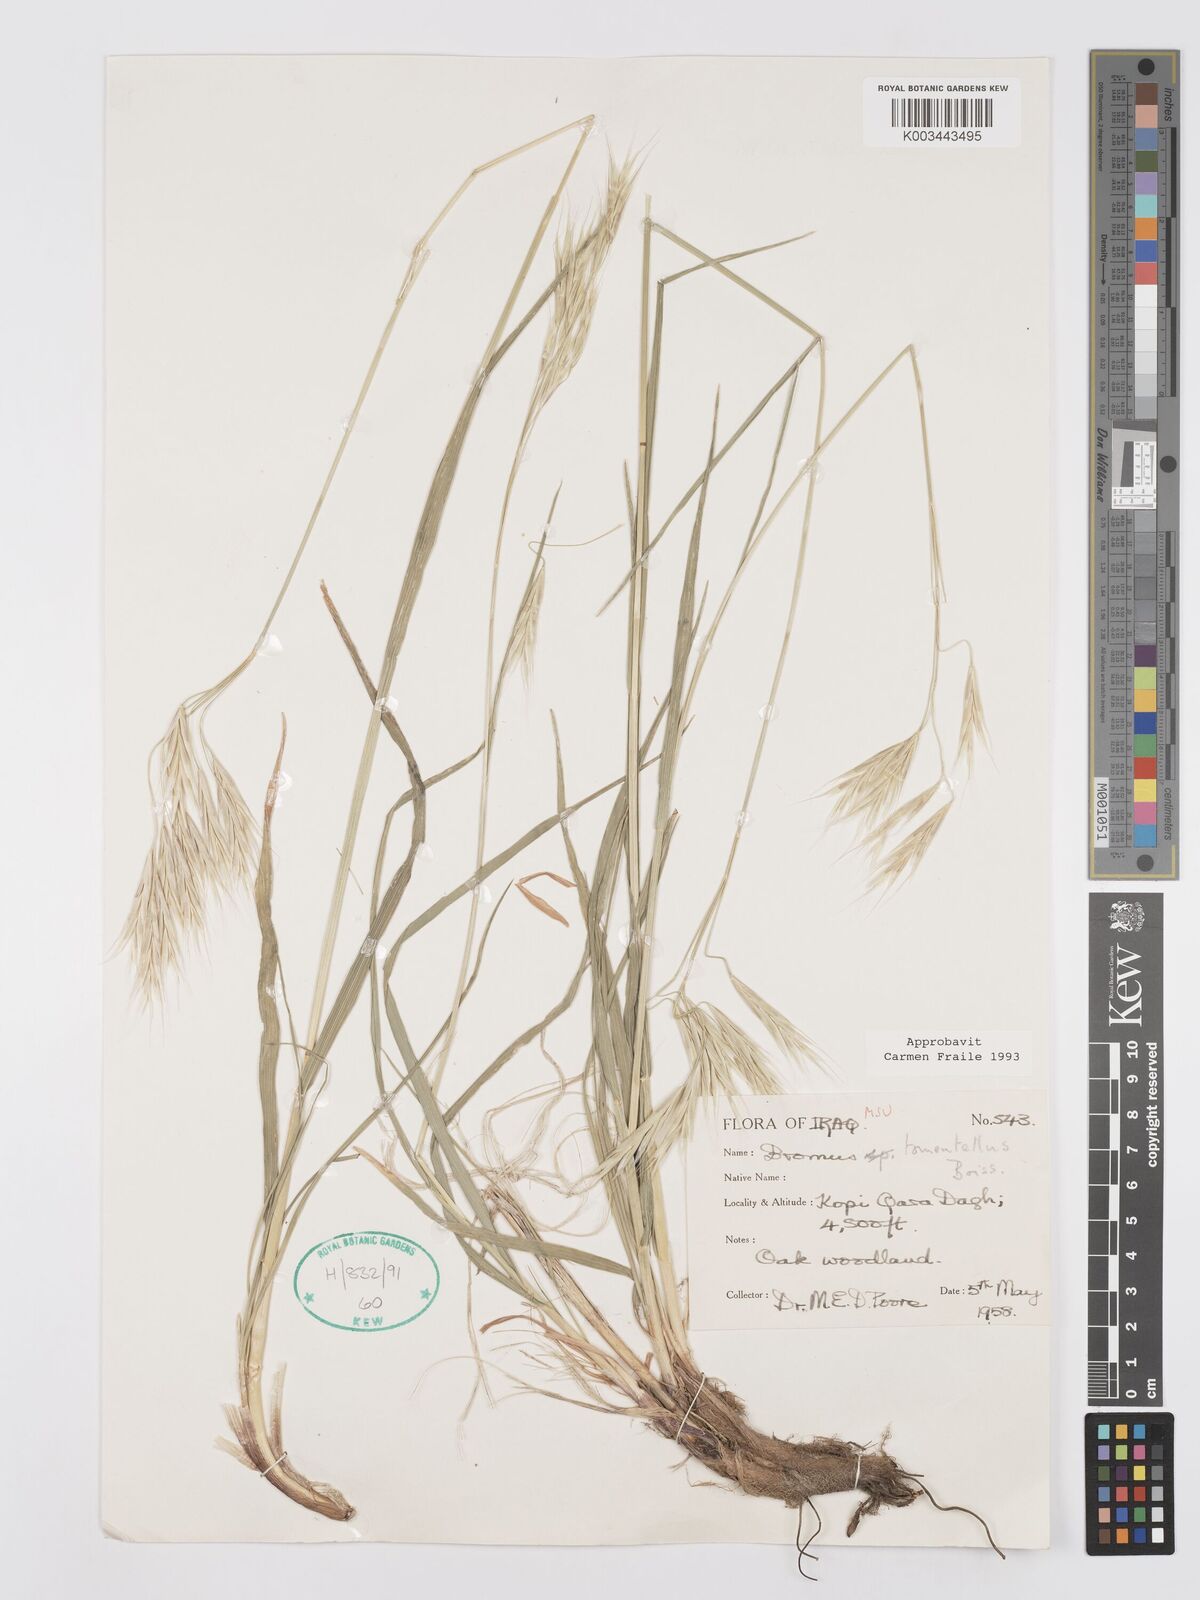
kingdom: Plantae
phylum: Tracheophyta
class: Liliopsida
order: Poales
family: Poaceae
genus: Bromus
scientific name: Bromus tomentellus
